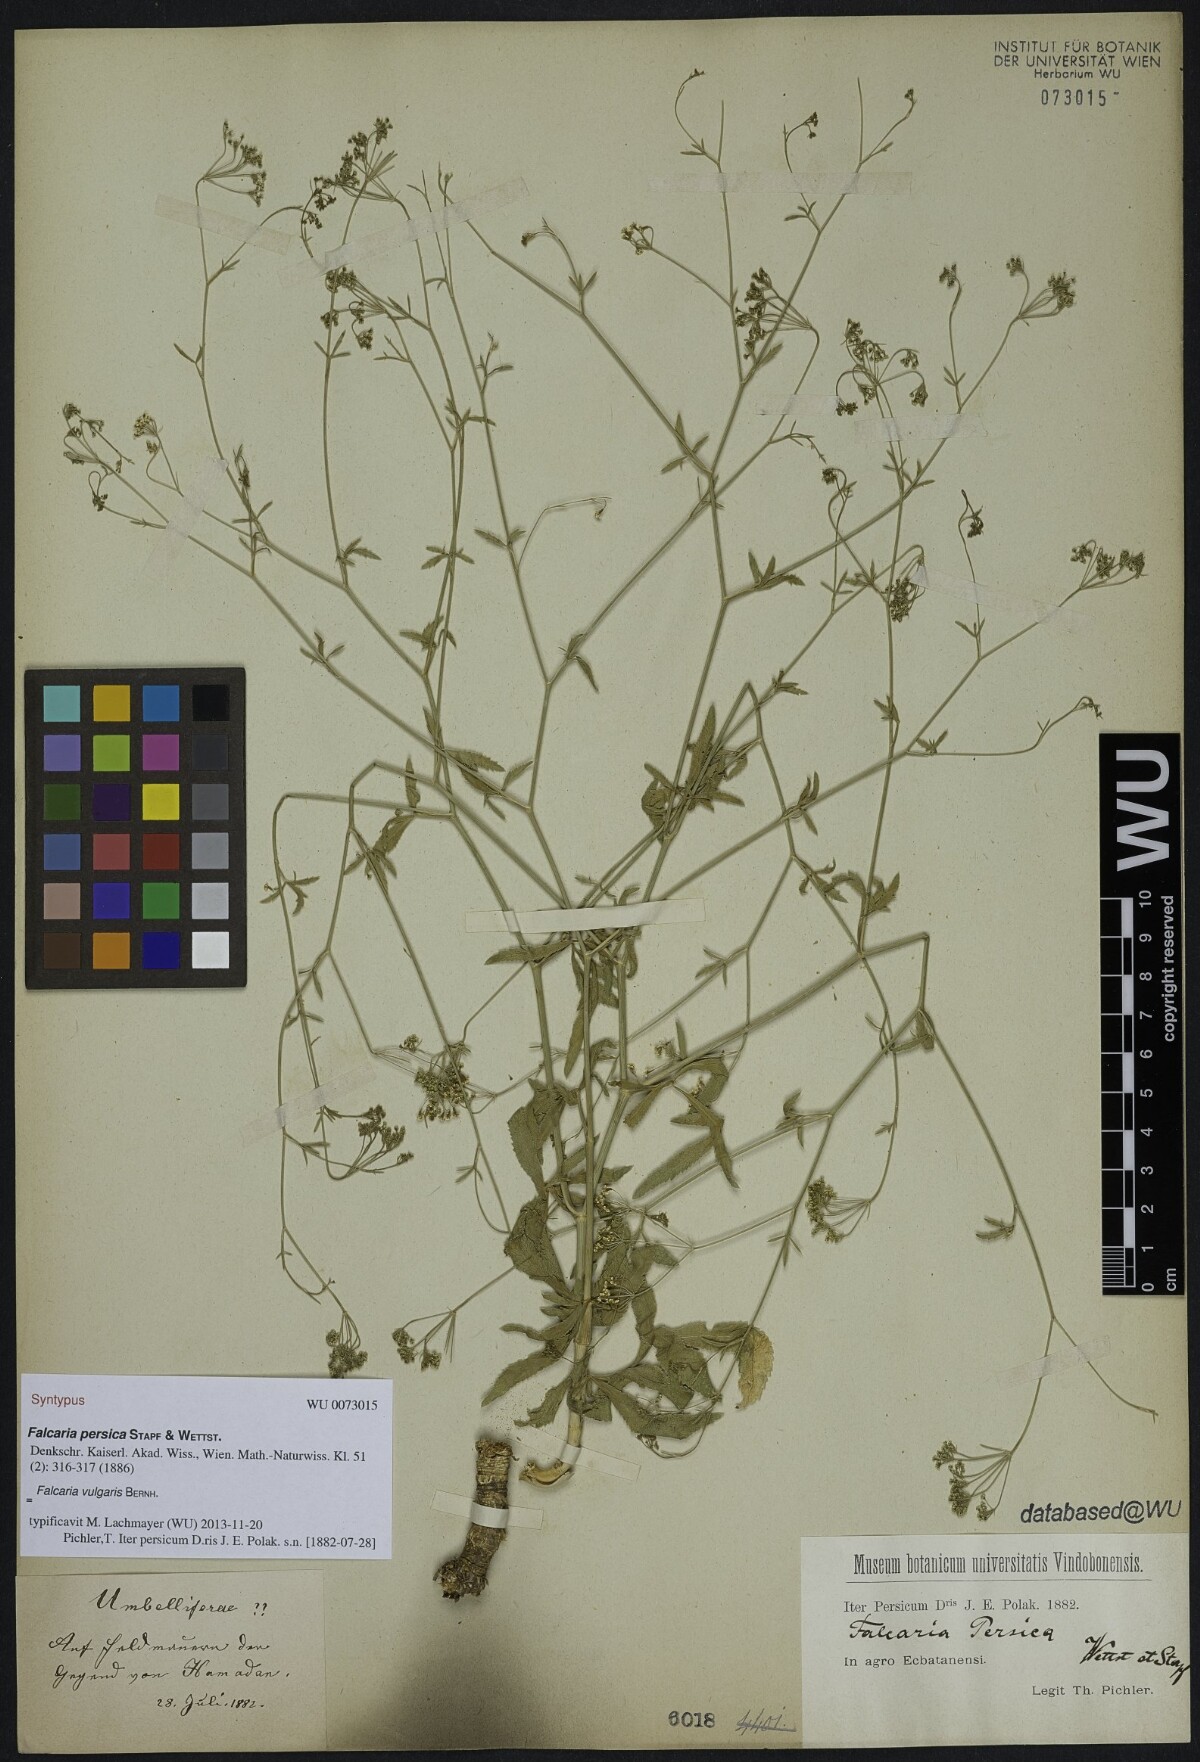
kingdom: Plantae
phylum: Tracheophyta
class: Magnoliopsida
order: Apiales
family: Apiaceae
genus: Falcaria
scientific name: Falcaria vulgaris
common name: Longleaf
